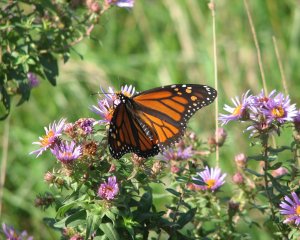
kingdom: Animalia
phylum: Arthropoda
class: Insecta
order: Lepidoptera
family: Nymphalidae
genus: Danaus
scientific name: Danaus plexippus
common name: Monarch
